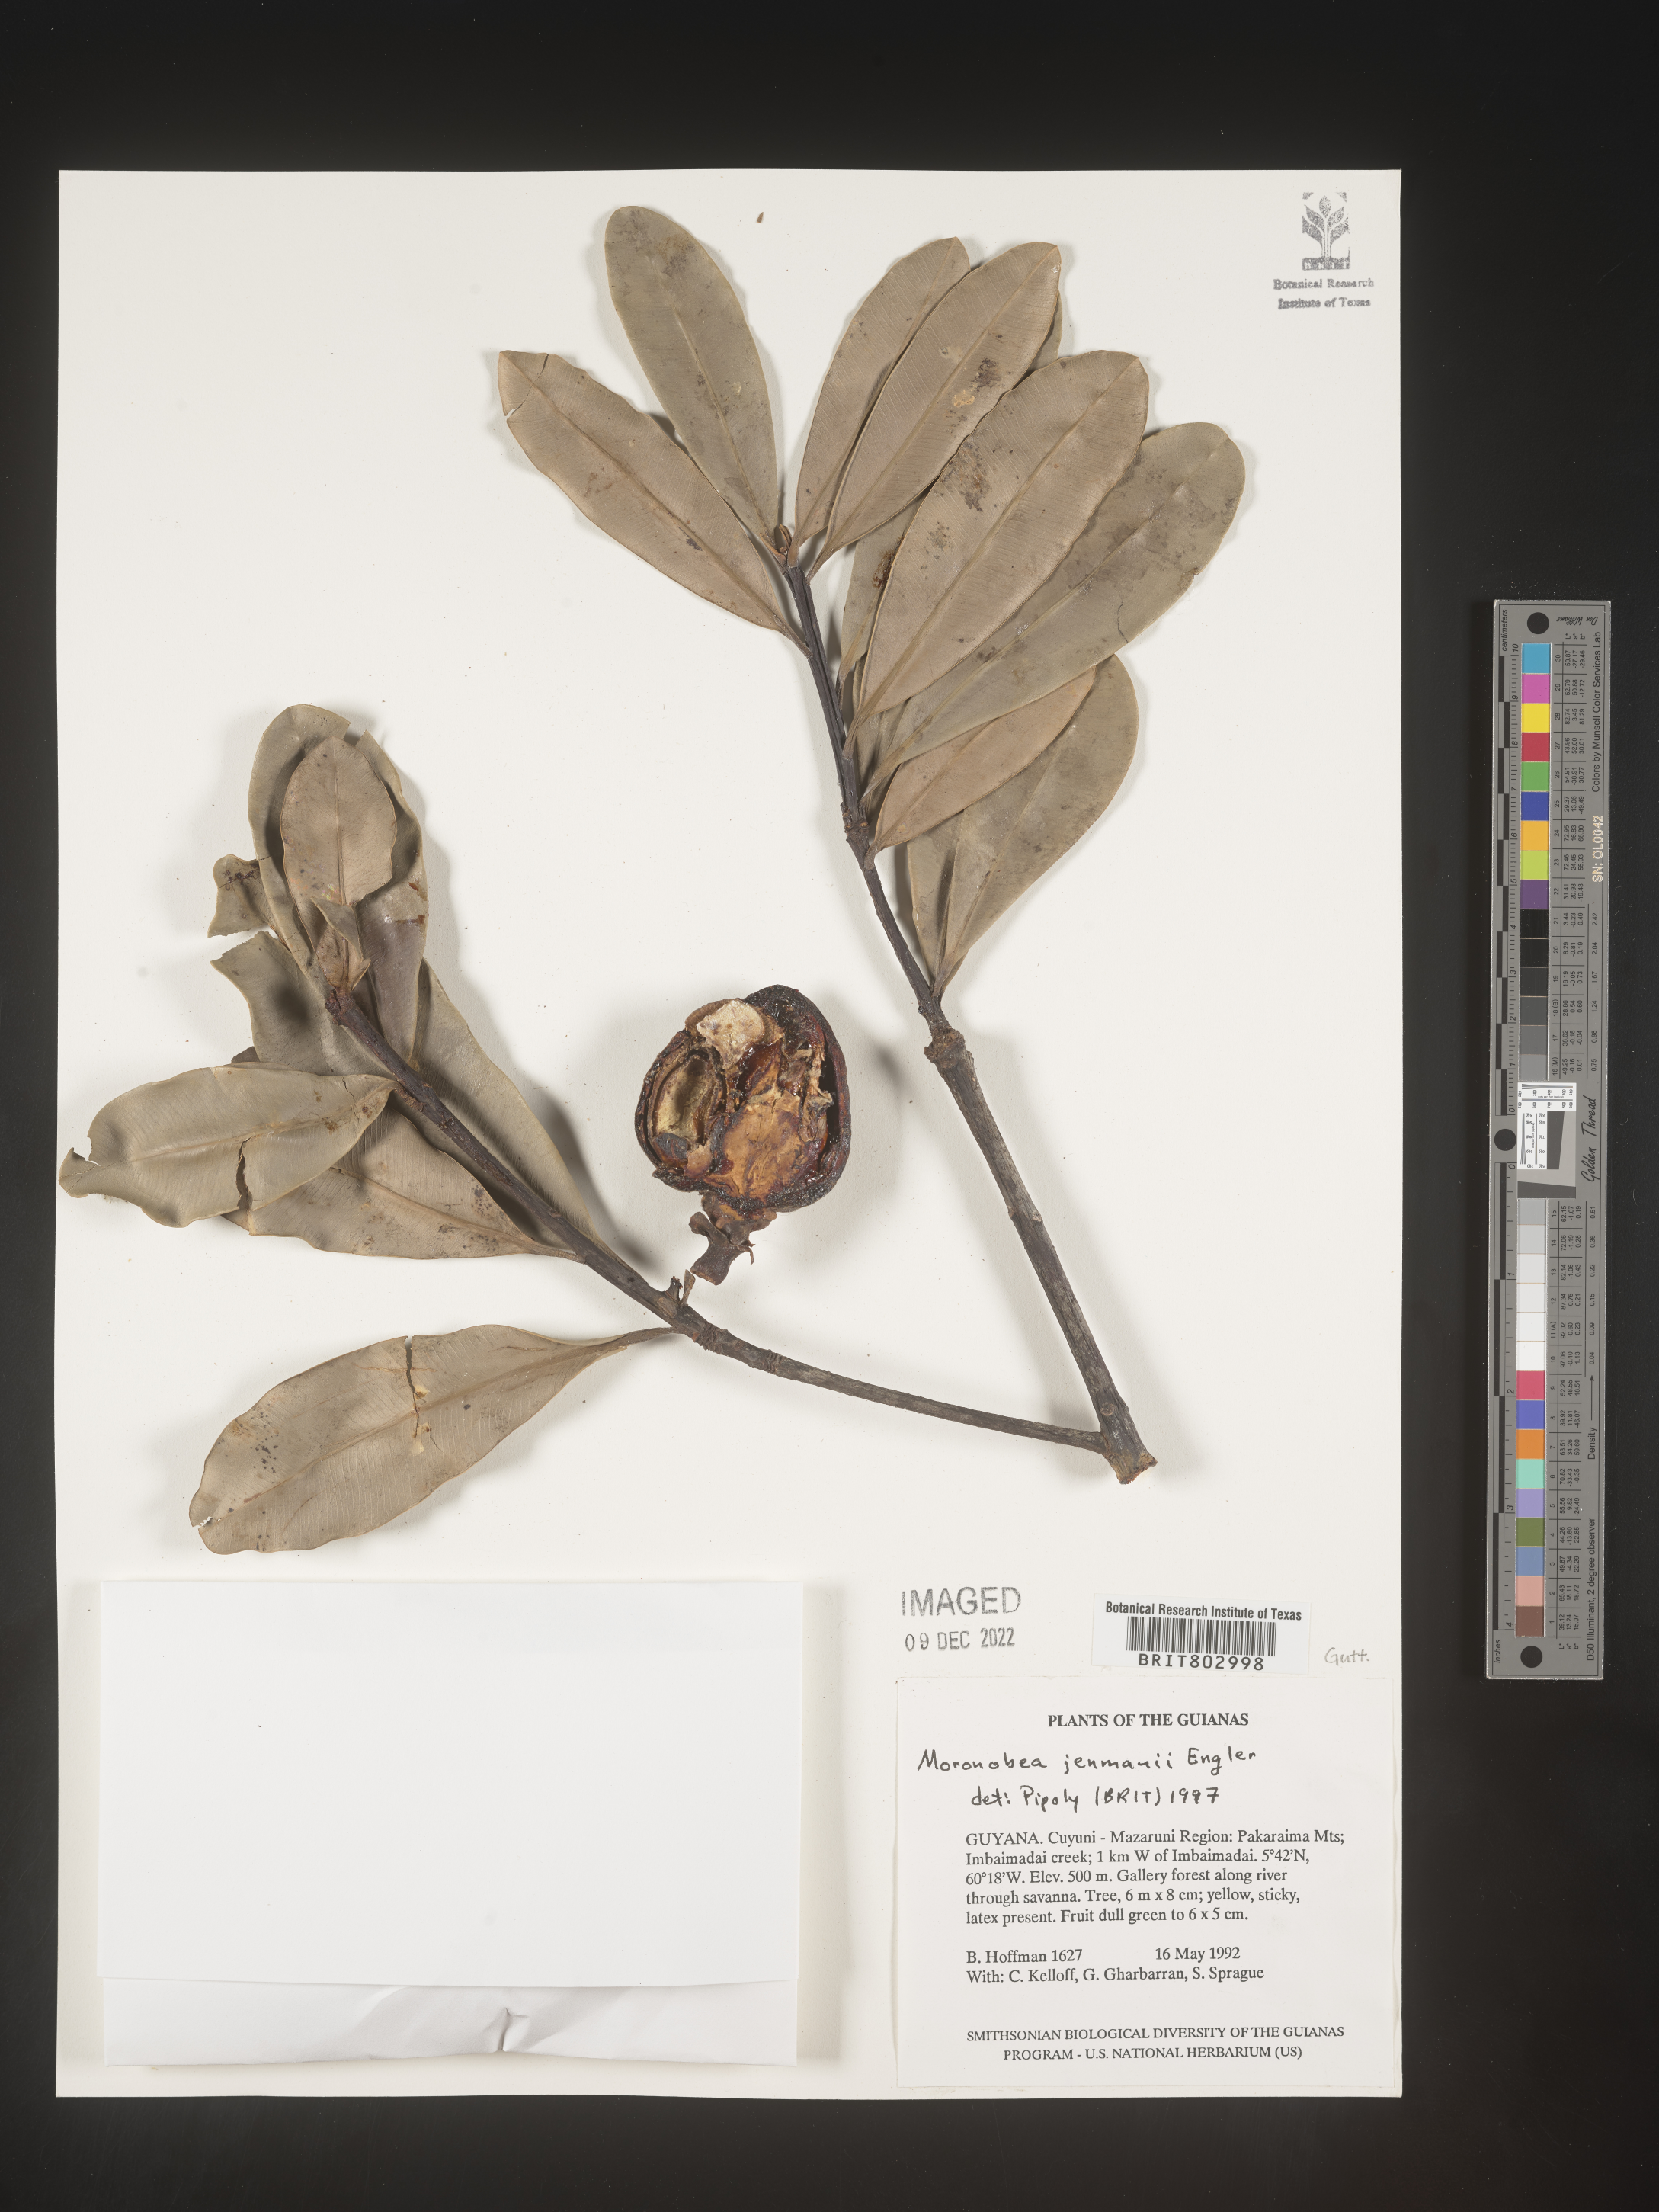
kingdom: Plantae
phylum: Tracheophyta
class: Magnoliopsida
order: Malpighiales
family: Clusiaceae
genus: Moronobea
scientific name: Moronobea
